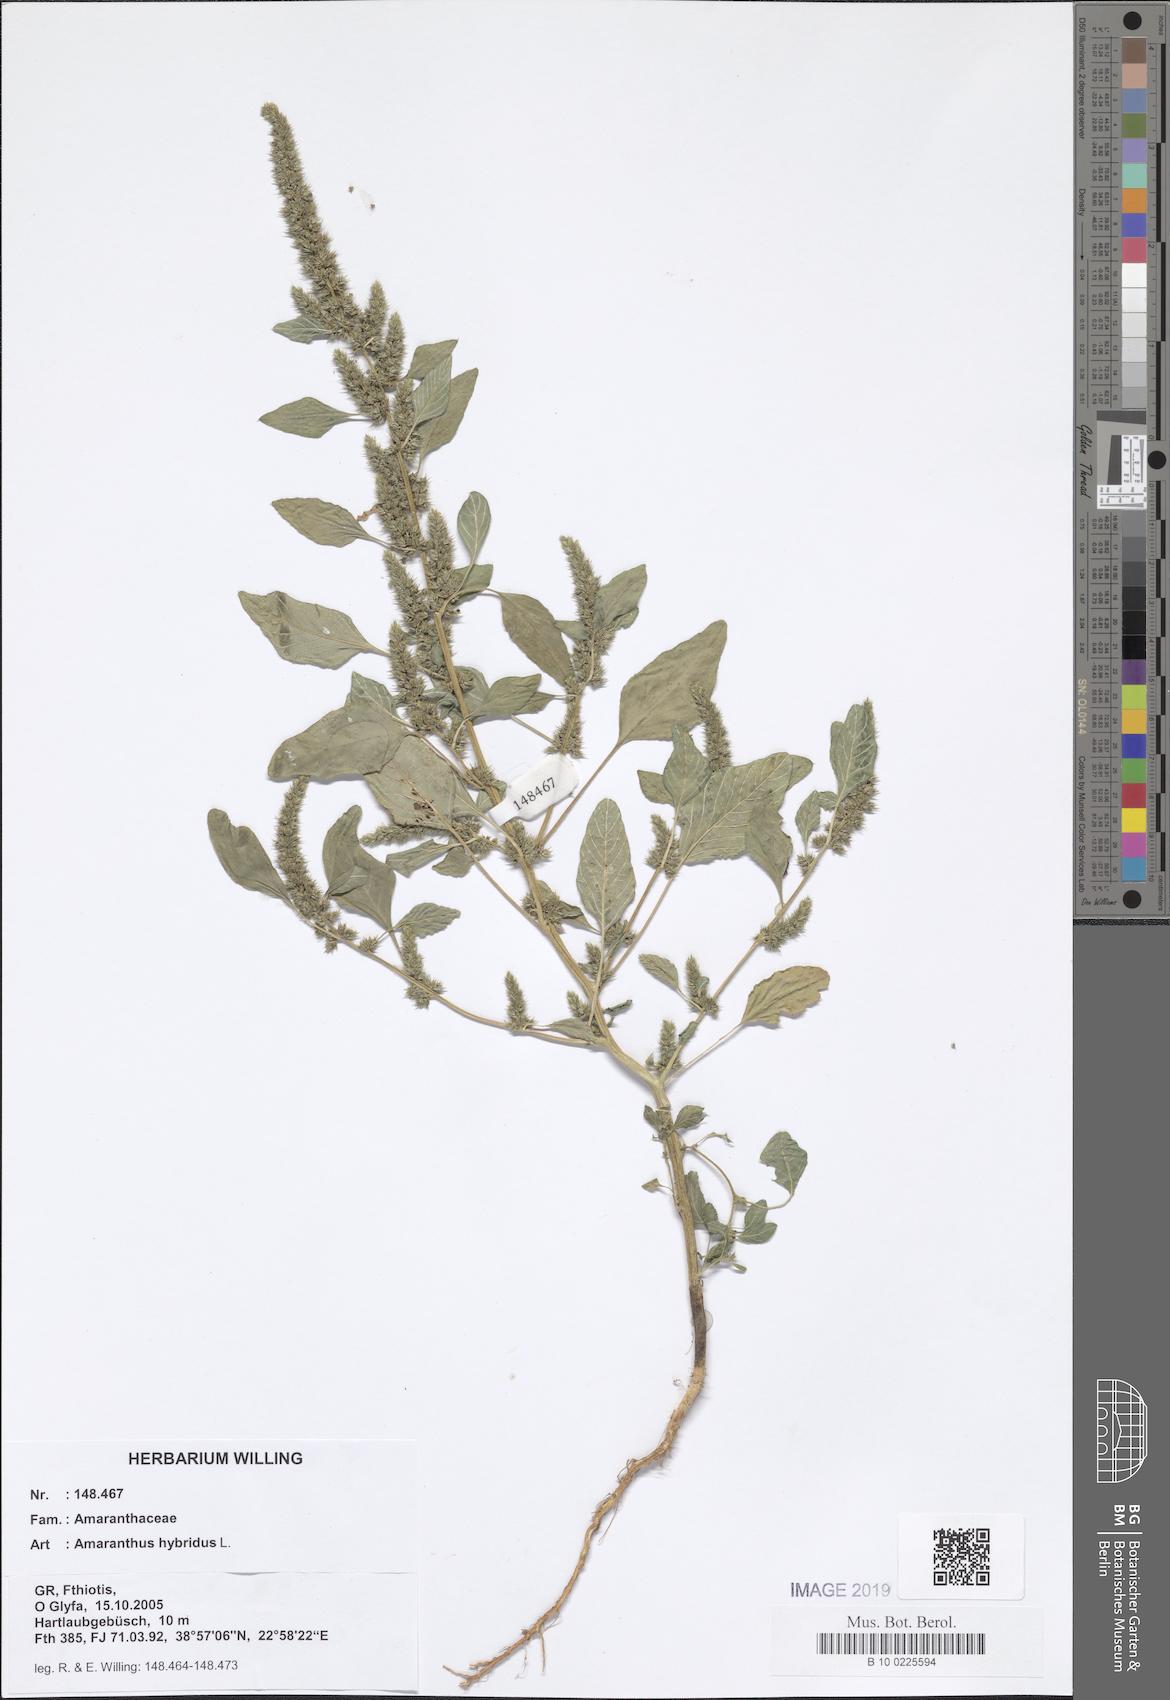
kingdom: Plantae
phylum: Tracheophyta
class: Magnoliopsida
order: Caryophyllales
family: Amaranthaceae
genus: Amaranthus
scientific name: Amaranthus hybridus
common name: Green amaranth
